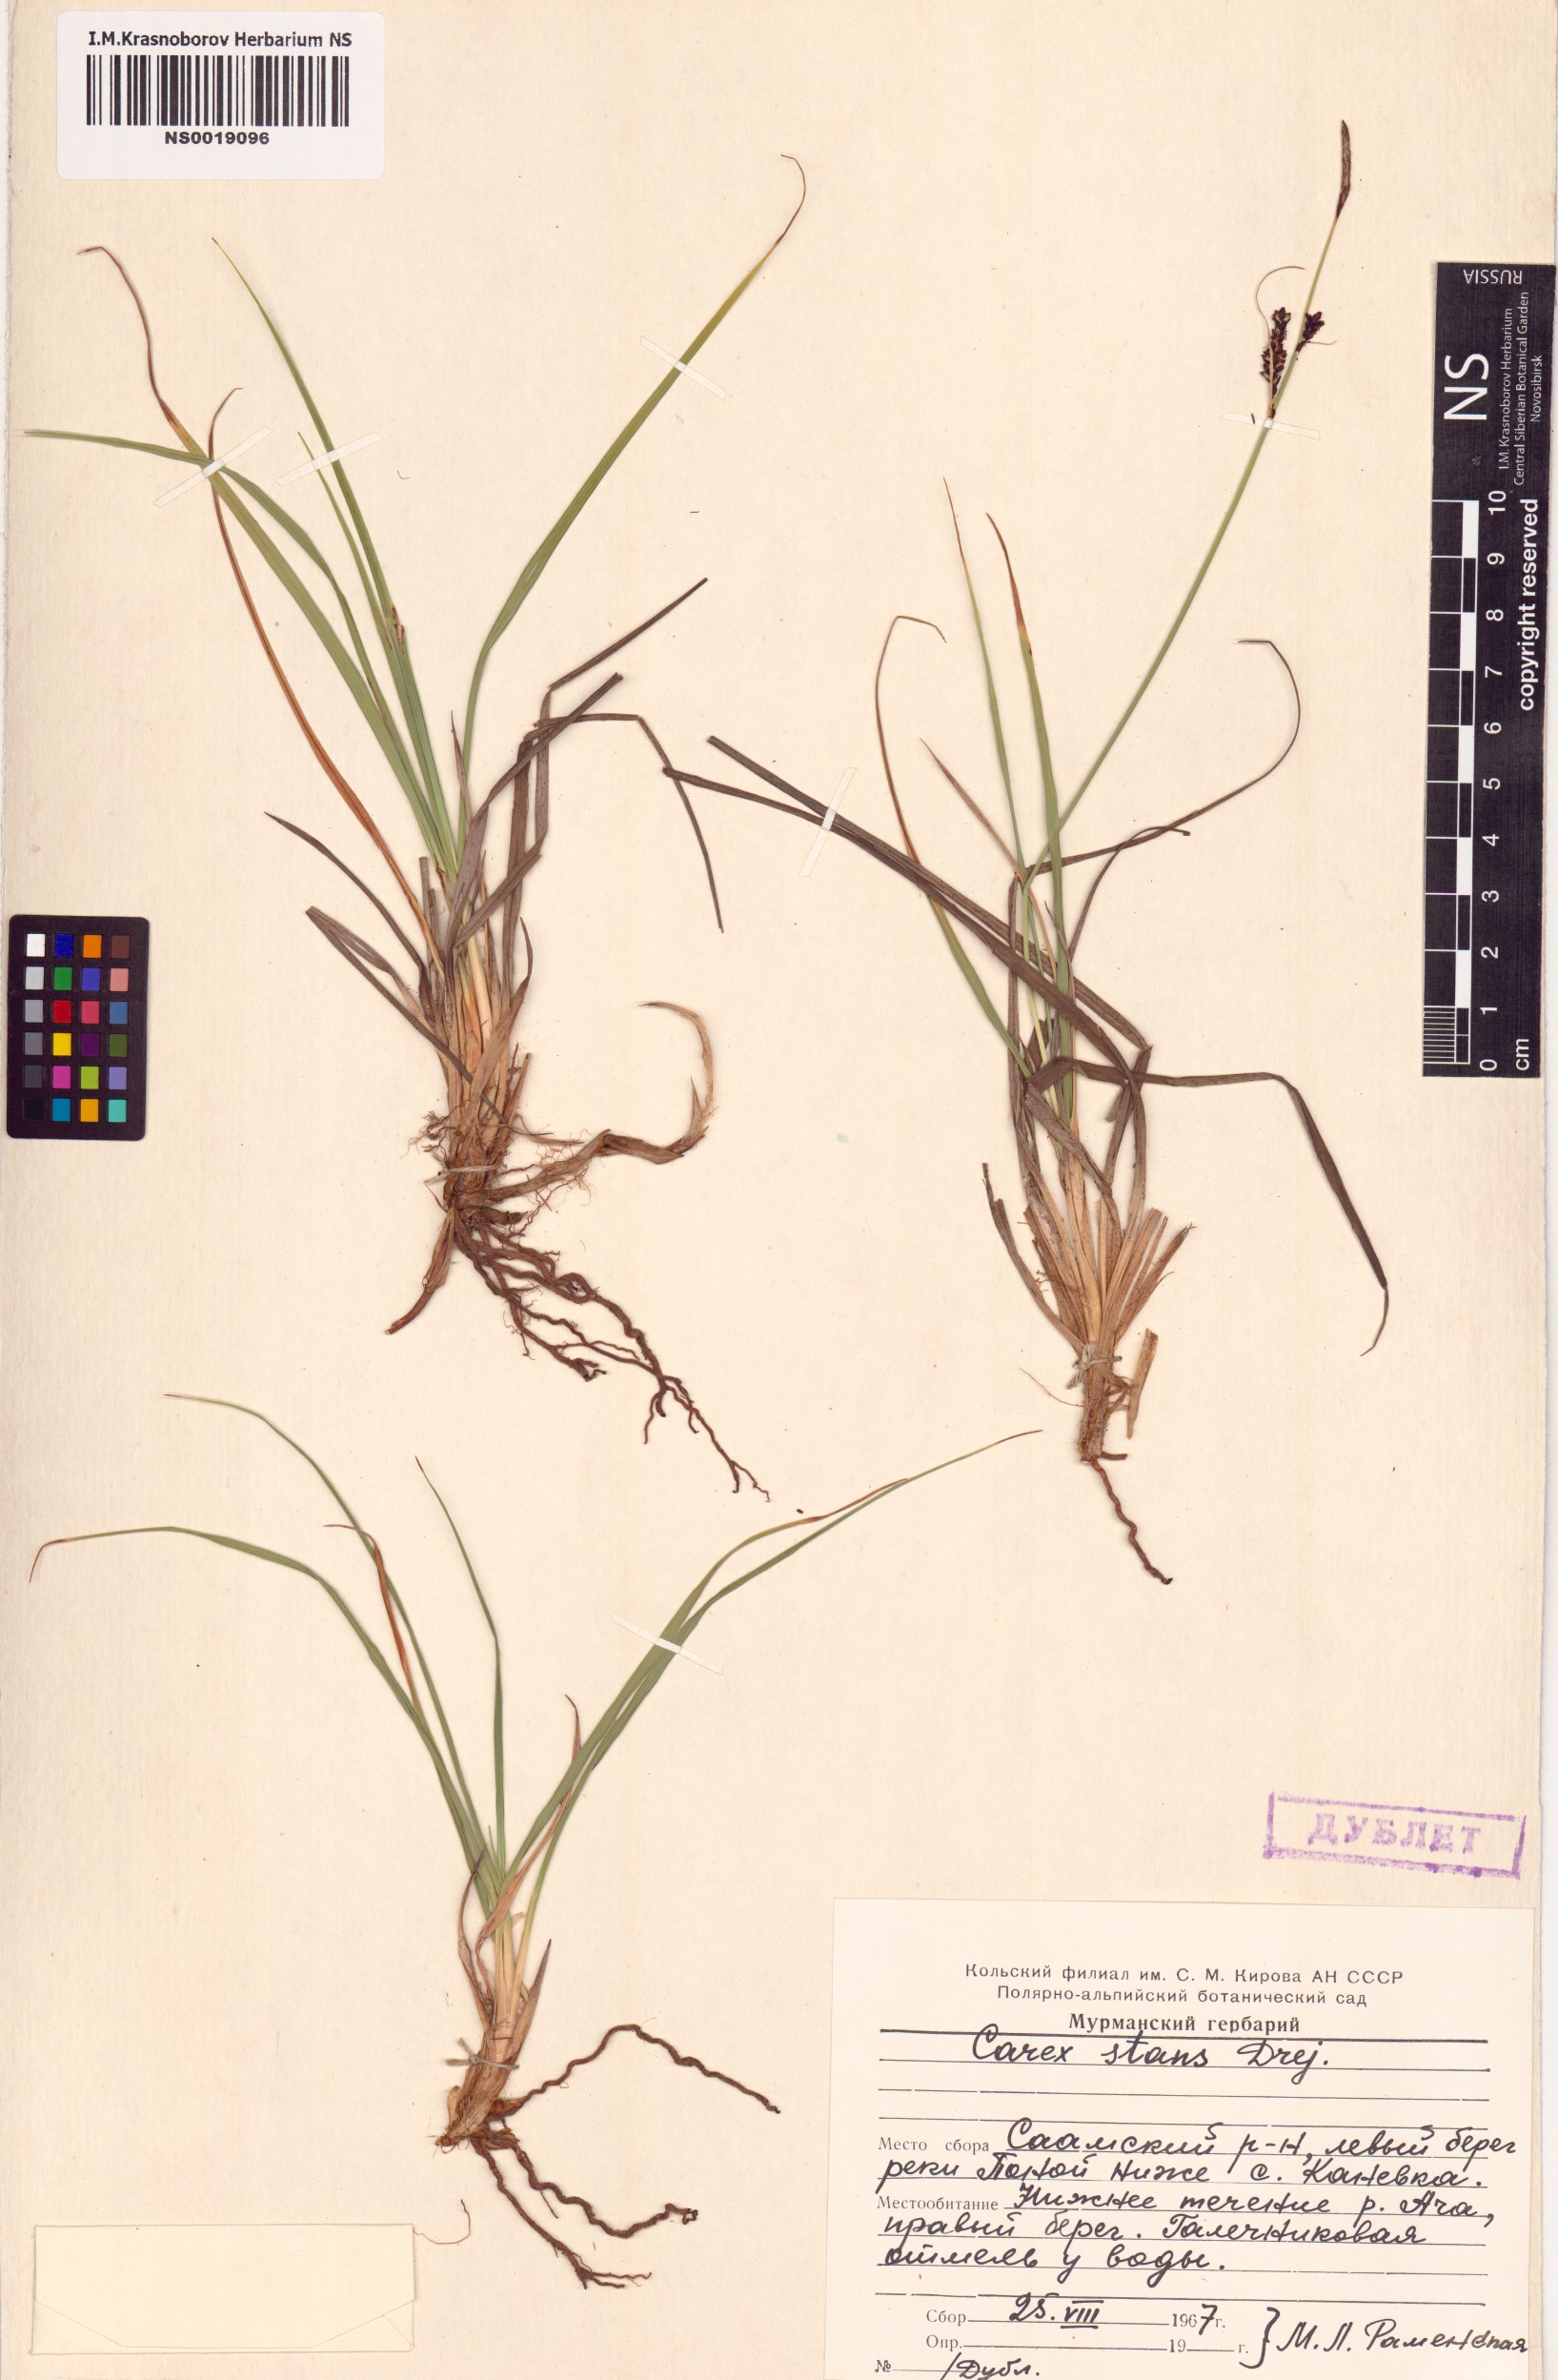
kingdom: Plantae
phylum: Tracheophyta
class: Liliopsida
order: Poales
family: Cyperaceae
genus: Carex
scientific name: Carex aquatilis
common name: Water sedge
